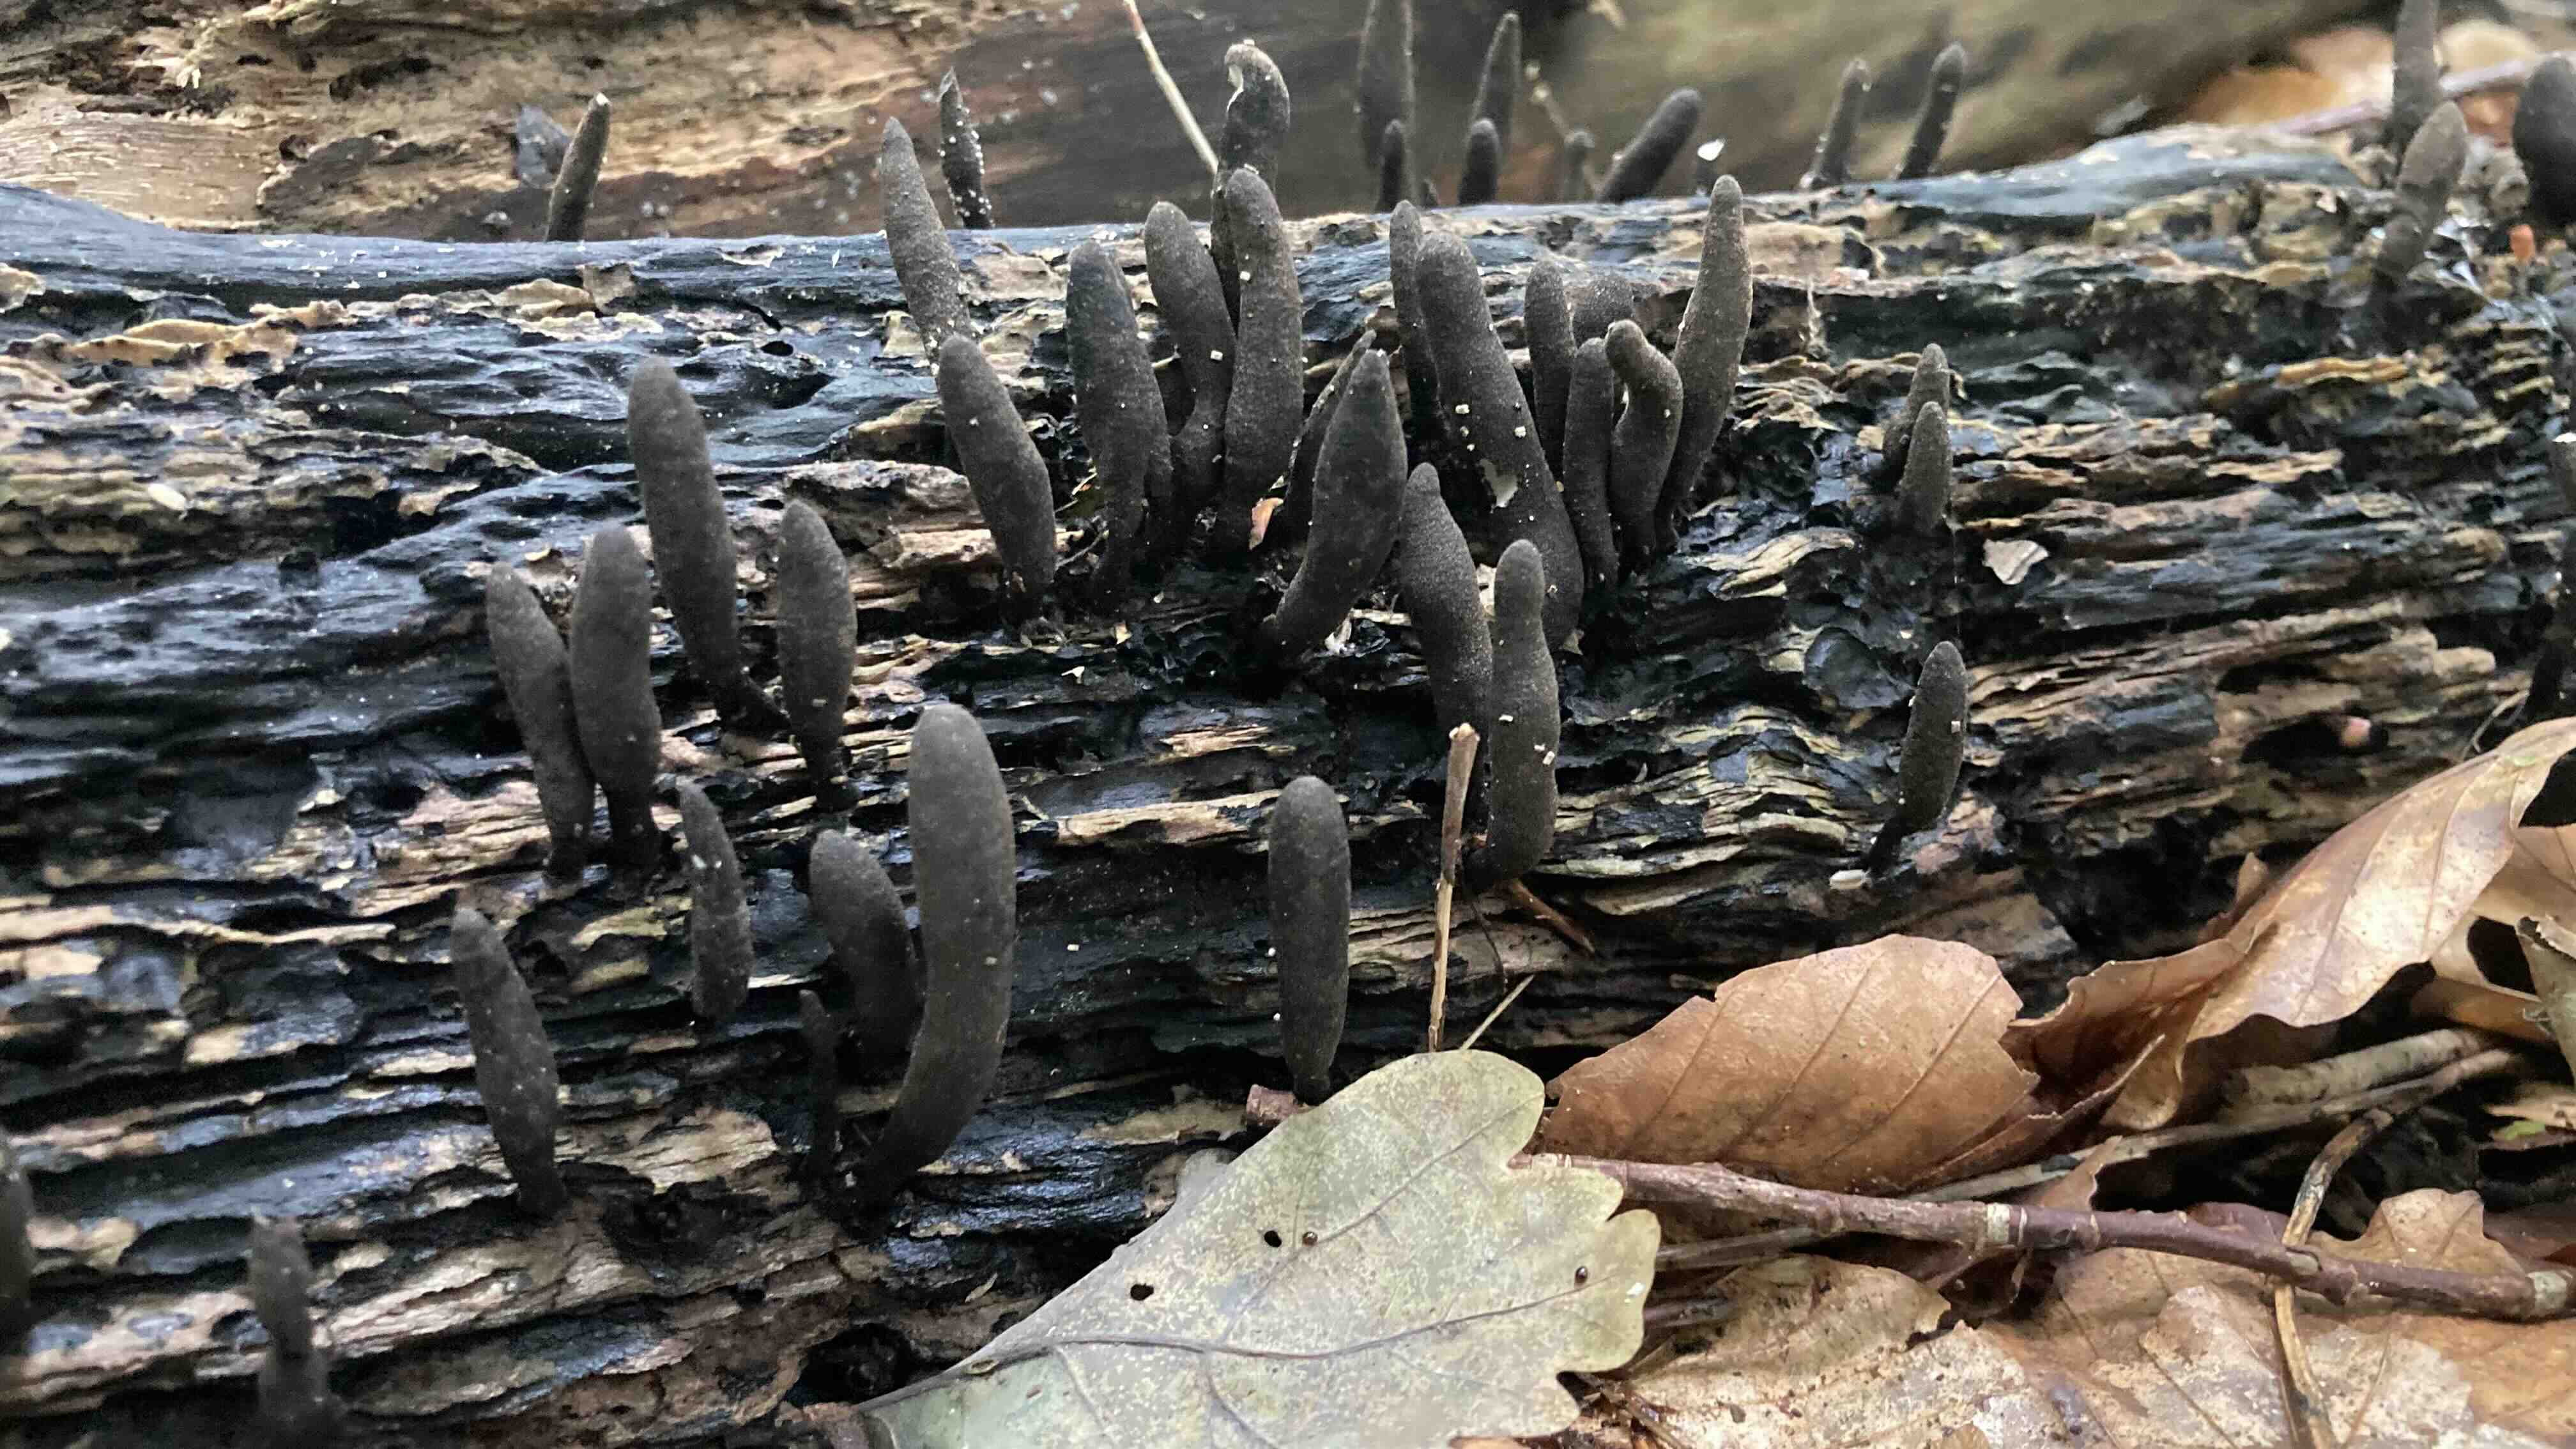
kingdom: Fungi
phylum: Ascomycota
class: Sordariomycetes
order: Xylariales
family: Xylariaceae
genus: Xylaria
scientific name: Xylaria longipes
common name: slank stødsvamp
